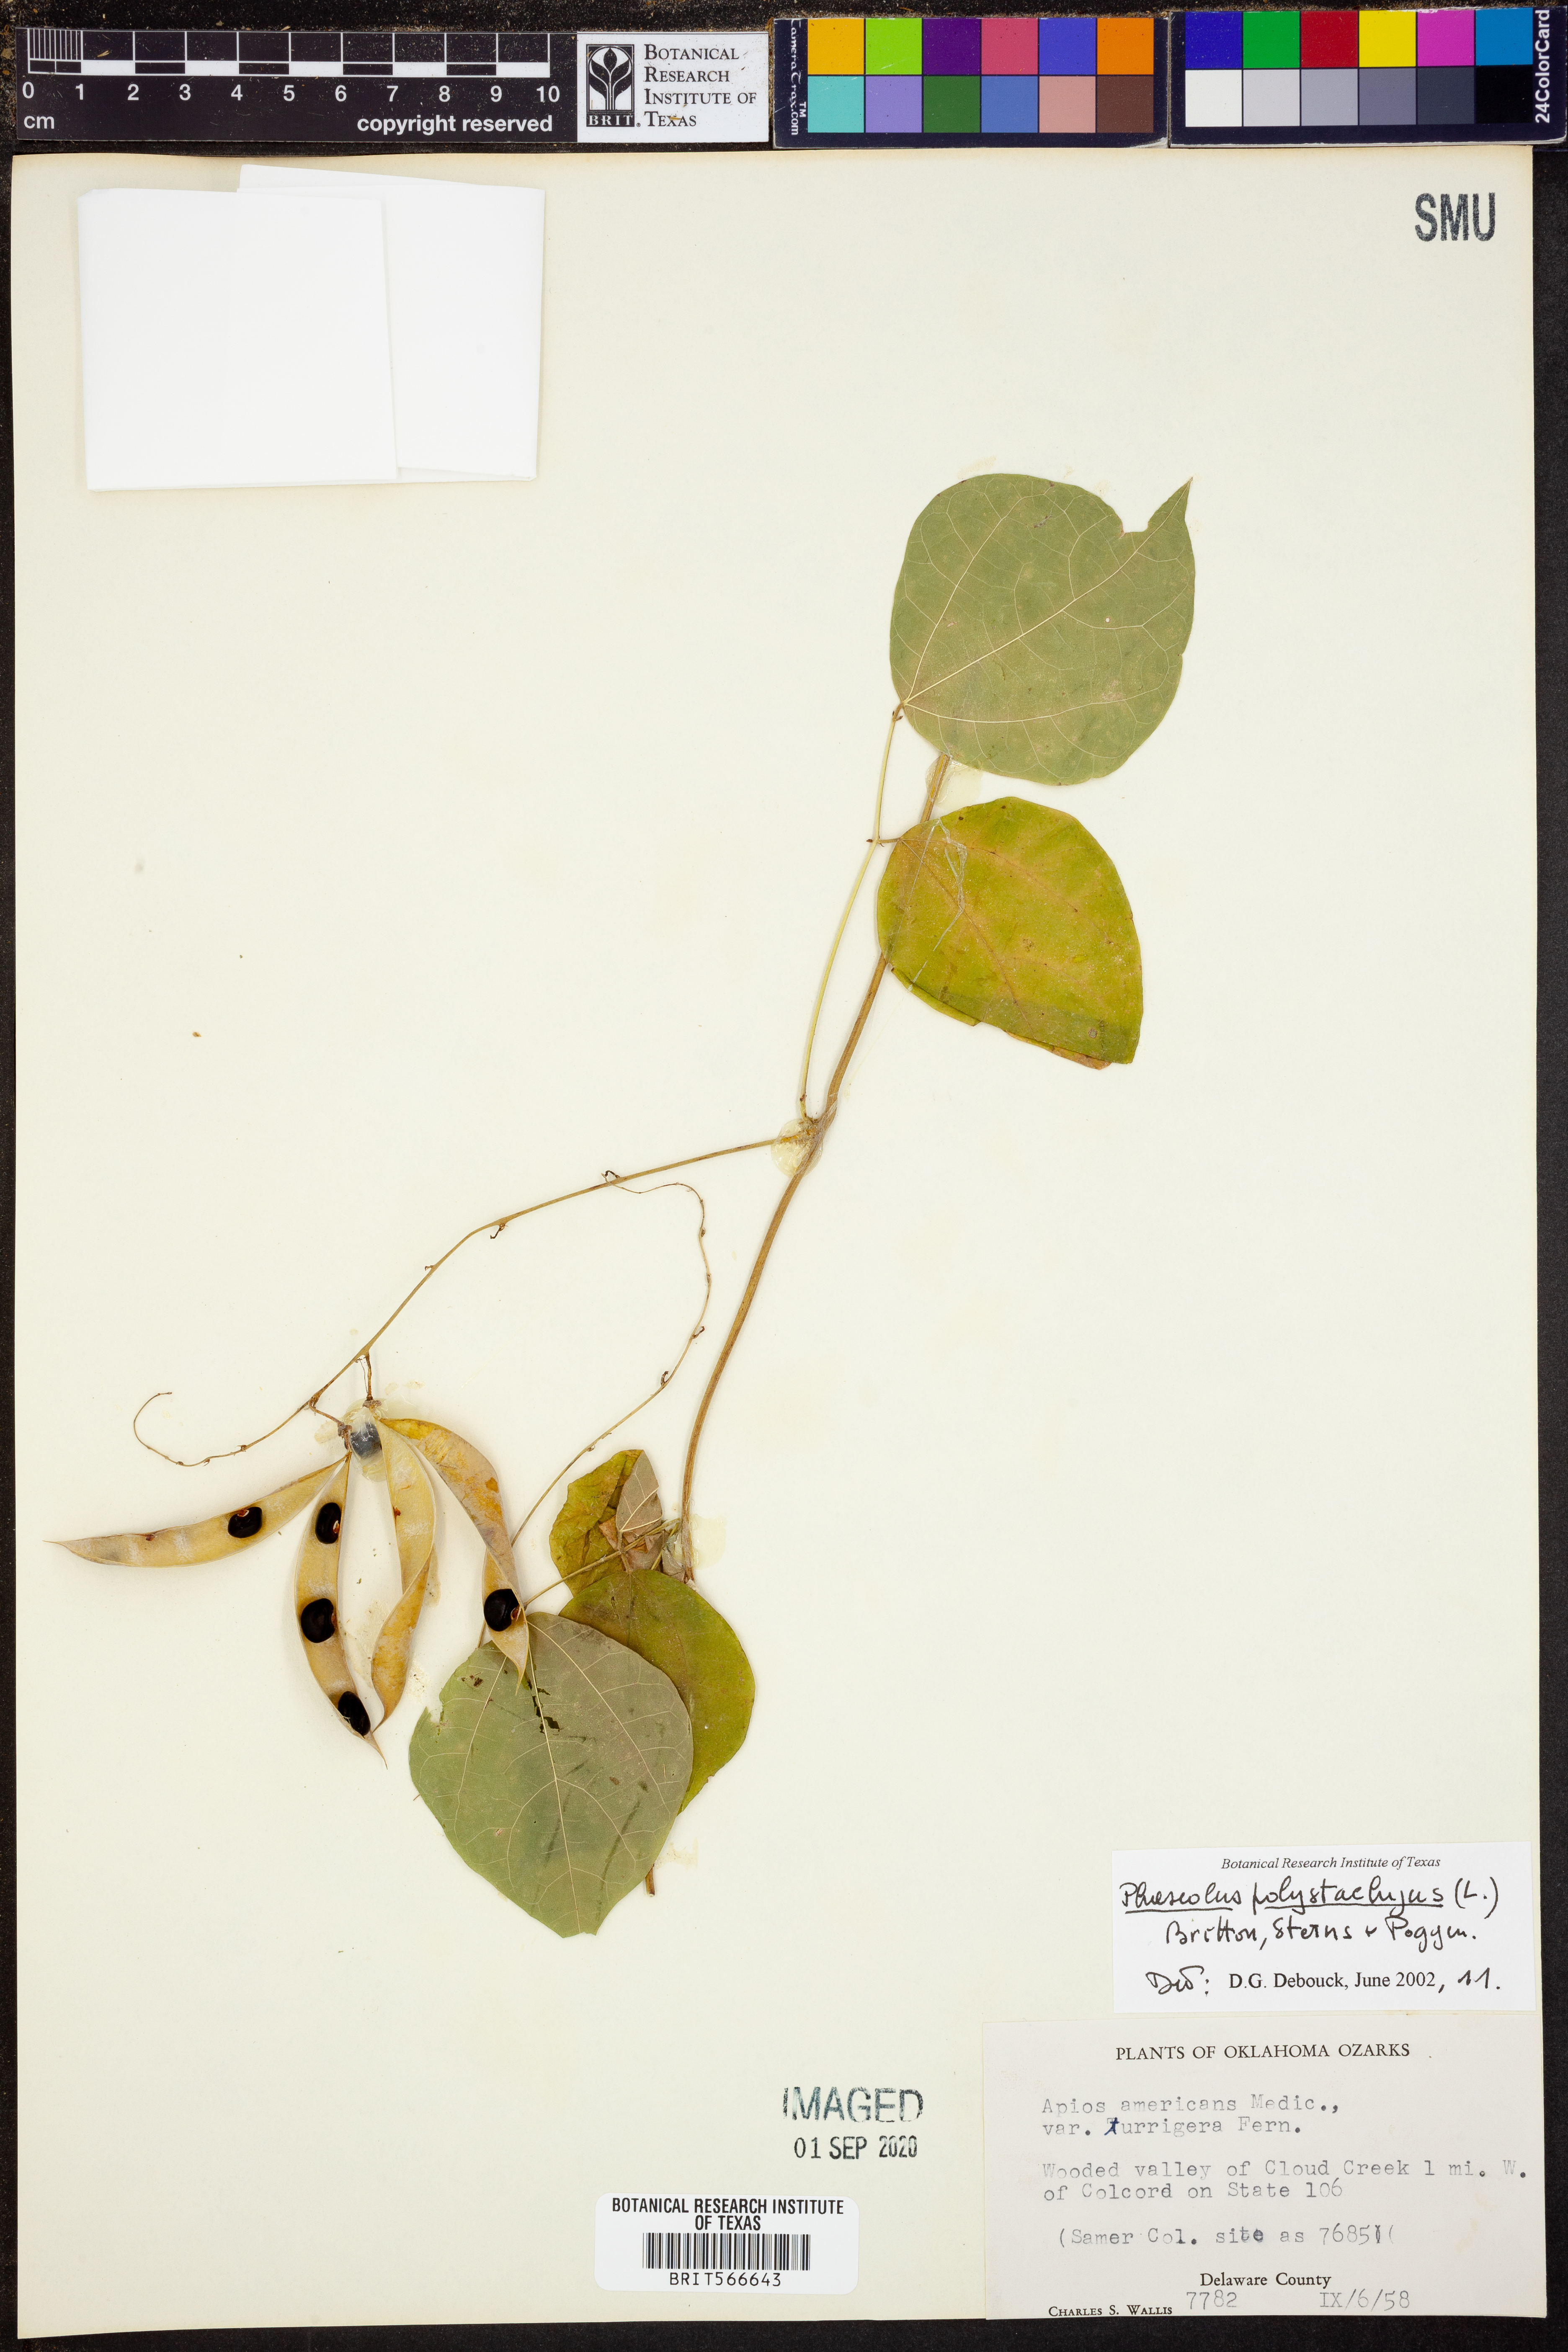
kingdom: Plantae
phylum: Tracheophyta
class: Magnoliopsida
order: Fabales
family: Fabaceae
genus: Phaseolus
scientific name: Phaseolus polystachios
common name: Thicket bean
